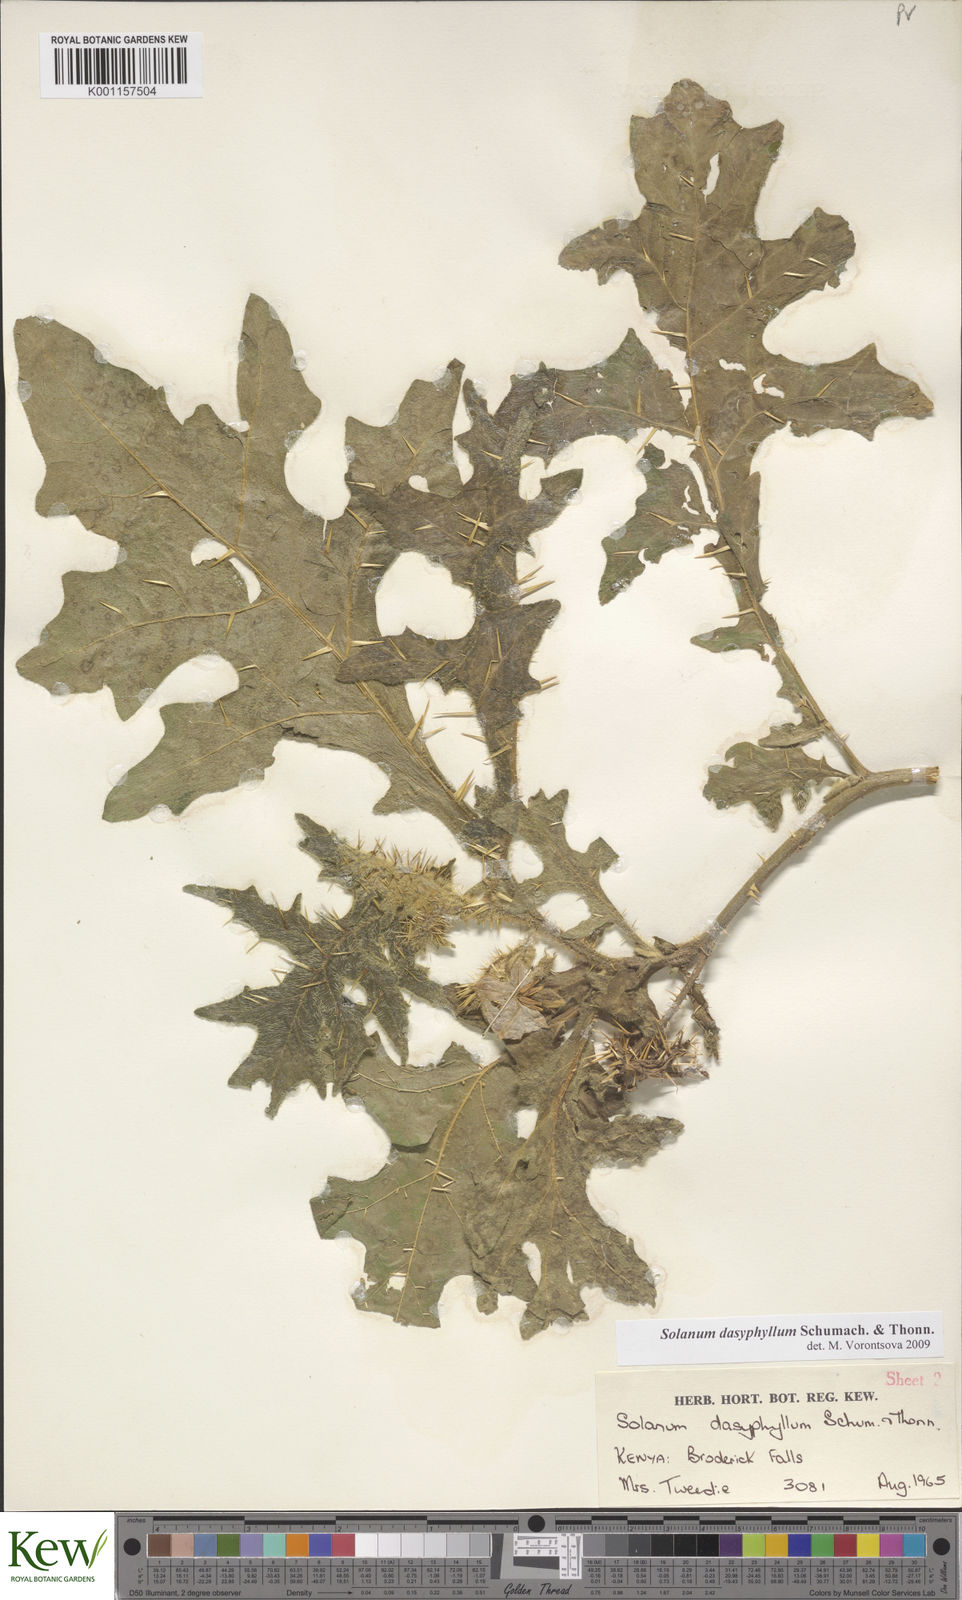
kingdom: Plantae
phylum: Tracheophyta
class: Magnoliopsida
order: Solanales
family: Solanaceae
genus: Solanum
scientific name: Solanum dasyphyllum
